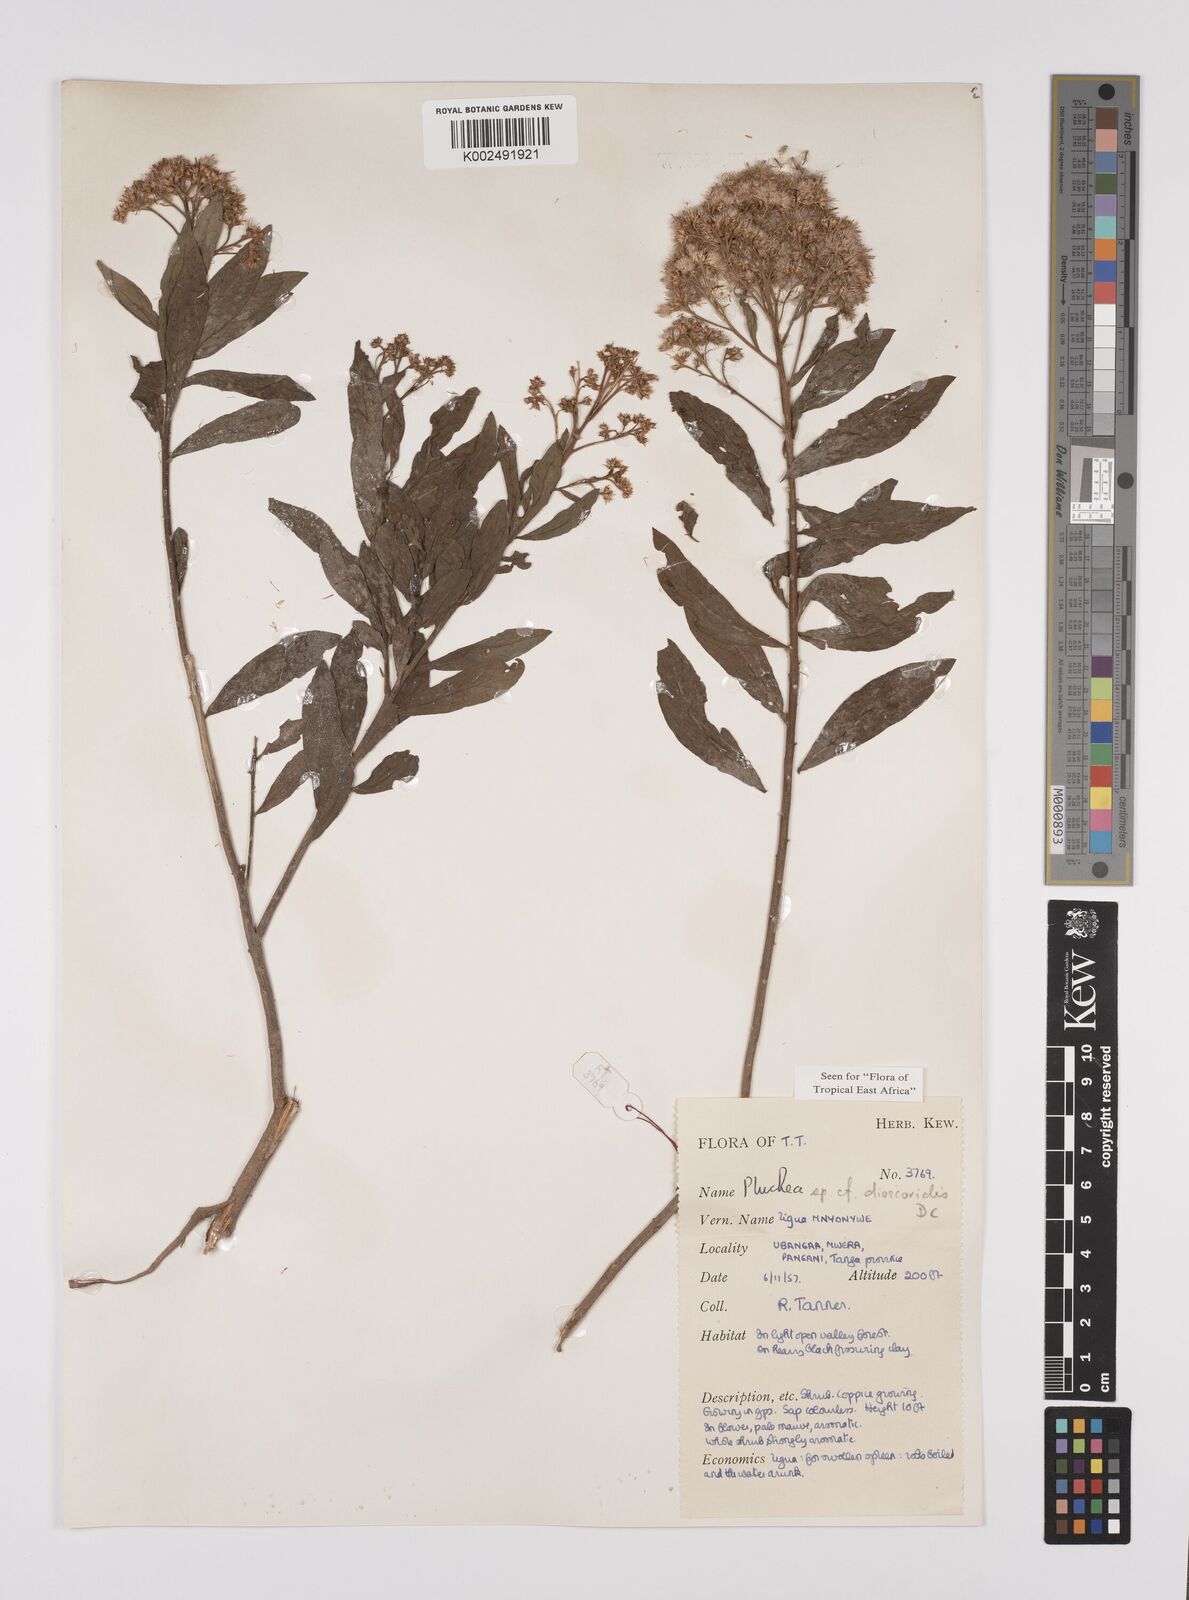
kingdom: Plantae
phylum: Tracheophyta
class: Magnoliopsida
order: Asterales
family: Asteraceae
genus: Pluchea
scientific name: Pluchea dioscoridis
